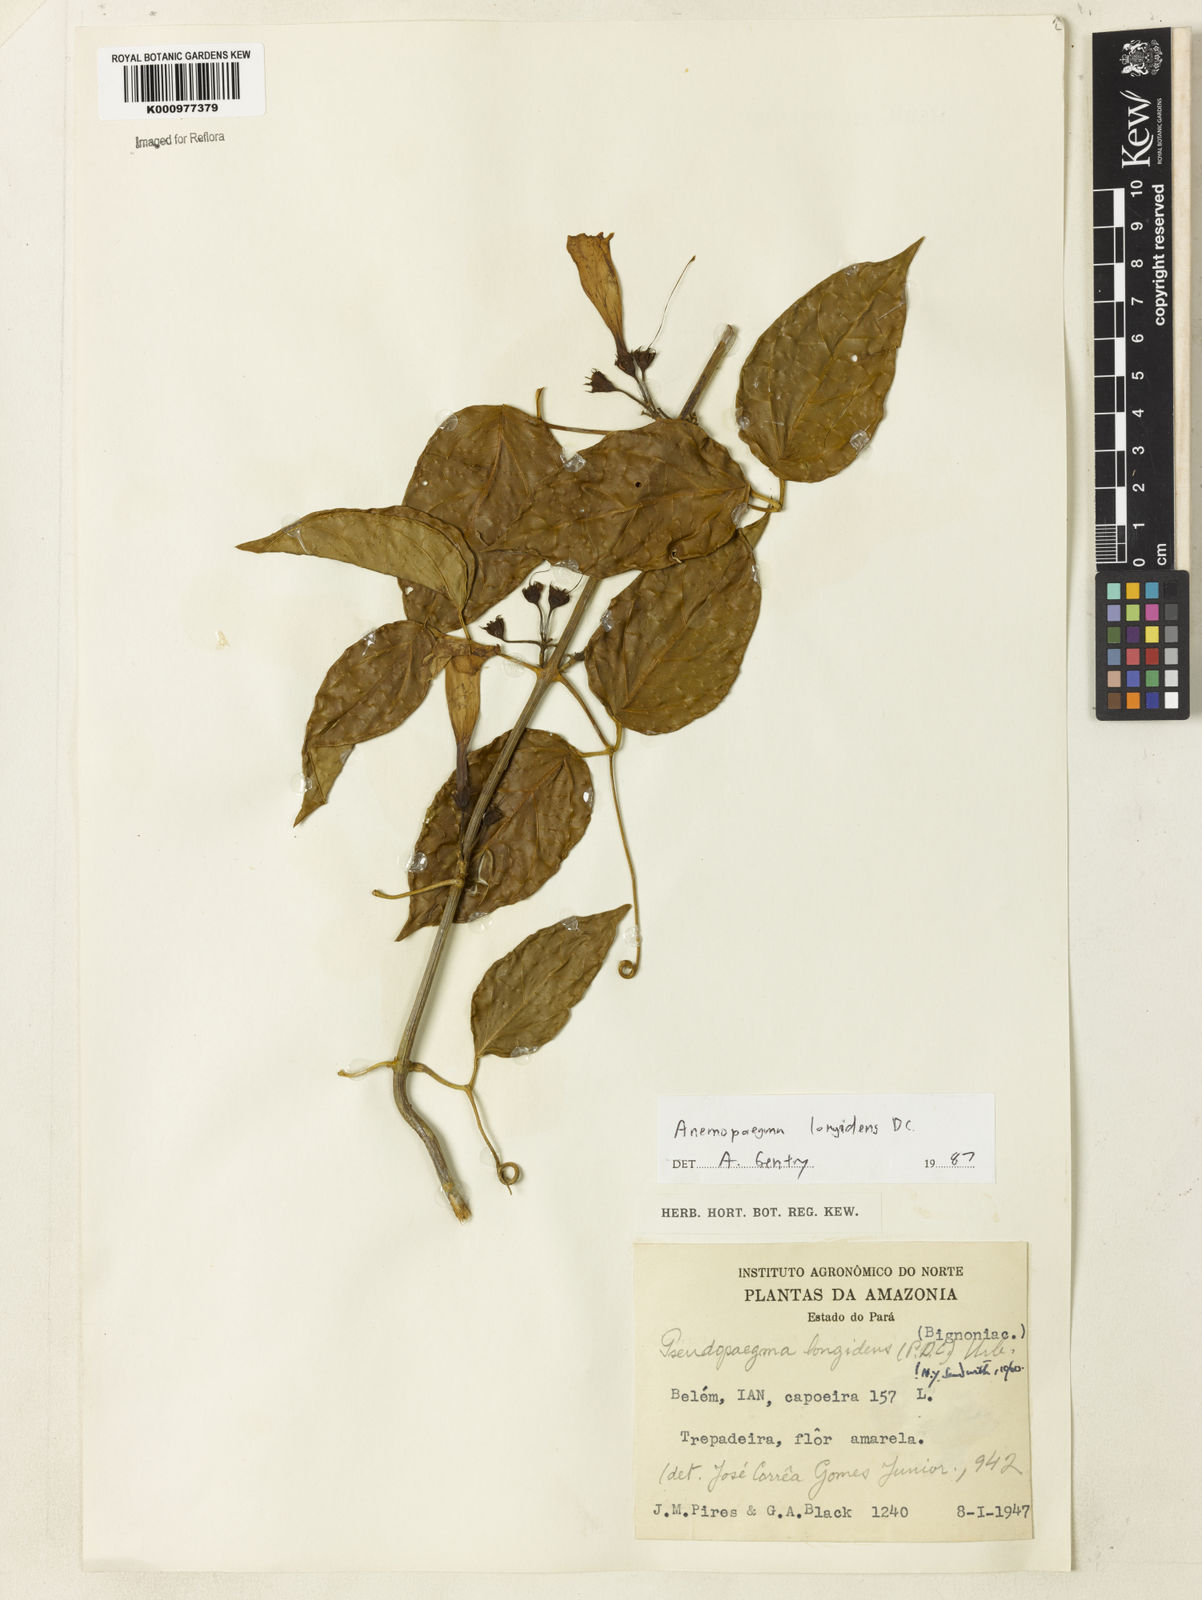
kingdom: Plantae
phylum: Tracheophyta
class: Magnoliopsida
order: Lamiales
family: Bignoniaceae
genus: Anemopaegma
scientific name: Anemopaegma longidens
